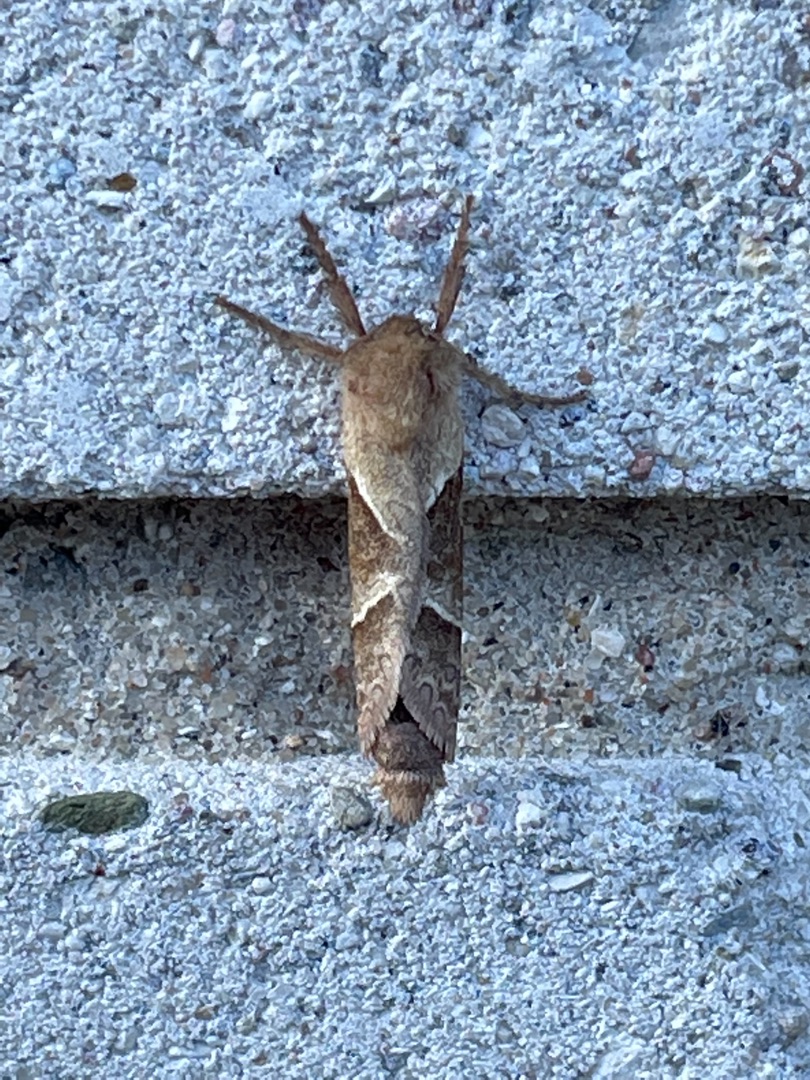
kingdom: Animalia
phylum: Arthropoda
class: Insecta
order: Lepidoptera
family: Hepialidae
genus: Triodia
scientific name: Triodia sylvina
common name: Skræpperodæder
